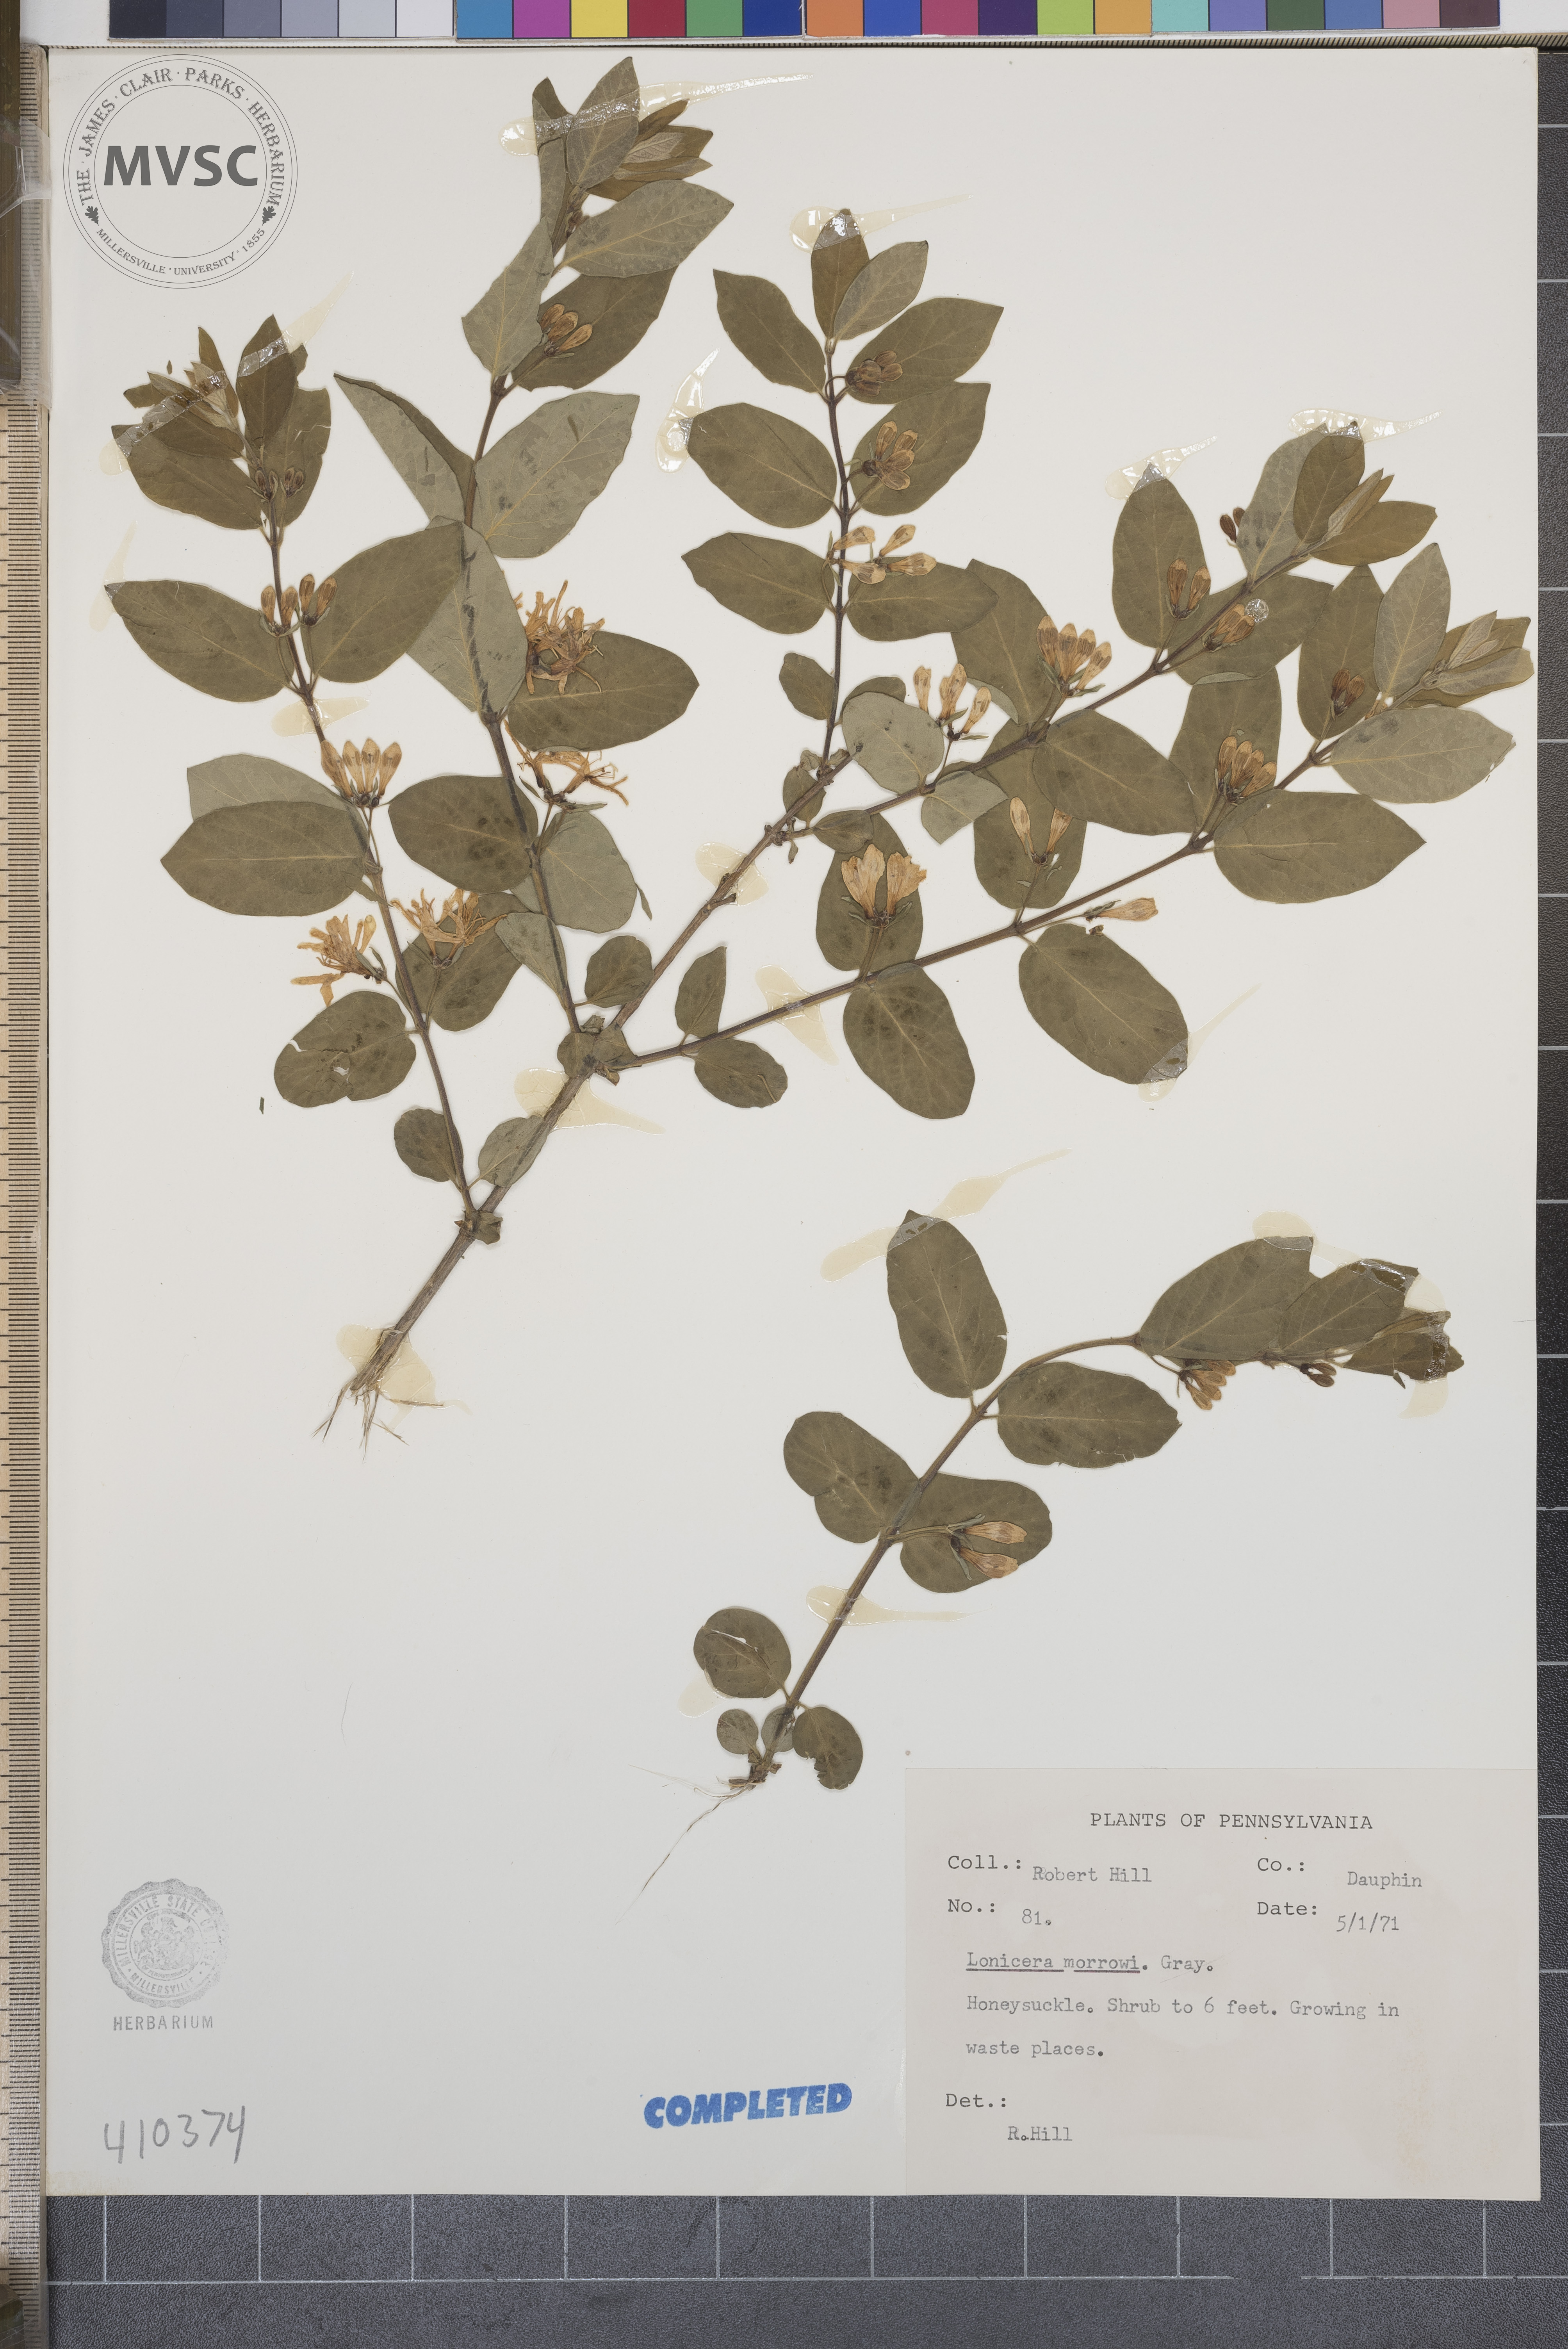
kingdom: Plantae
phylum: Tracheophyta
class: Magnoliopsida
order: Dipsacales
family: Caprifoliaceae
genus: Lonicera
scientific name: Lonicera morrowii
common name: Morrow's honeysuckle
